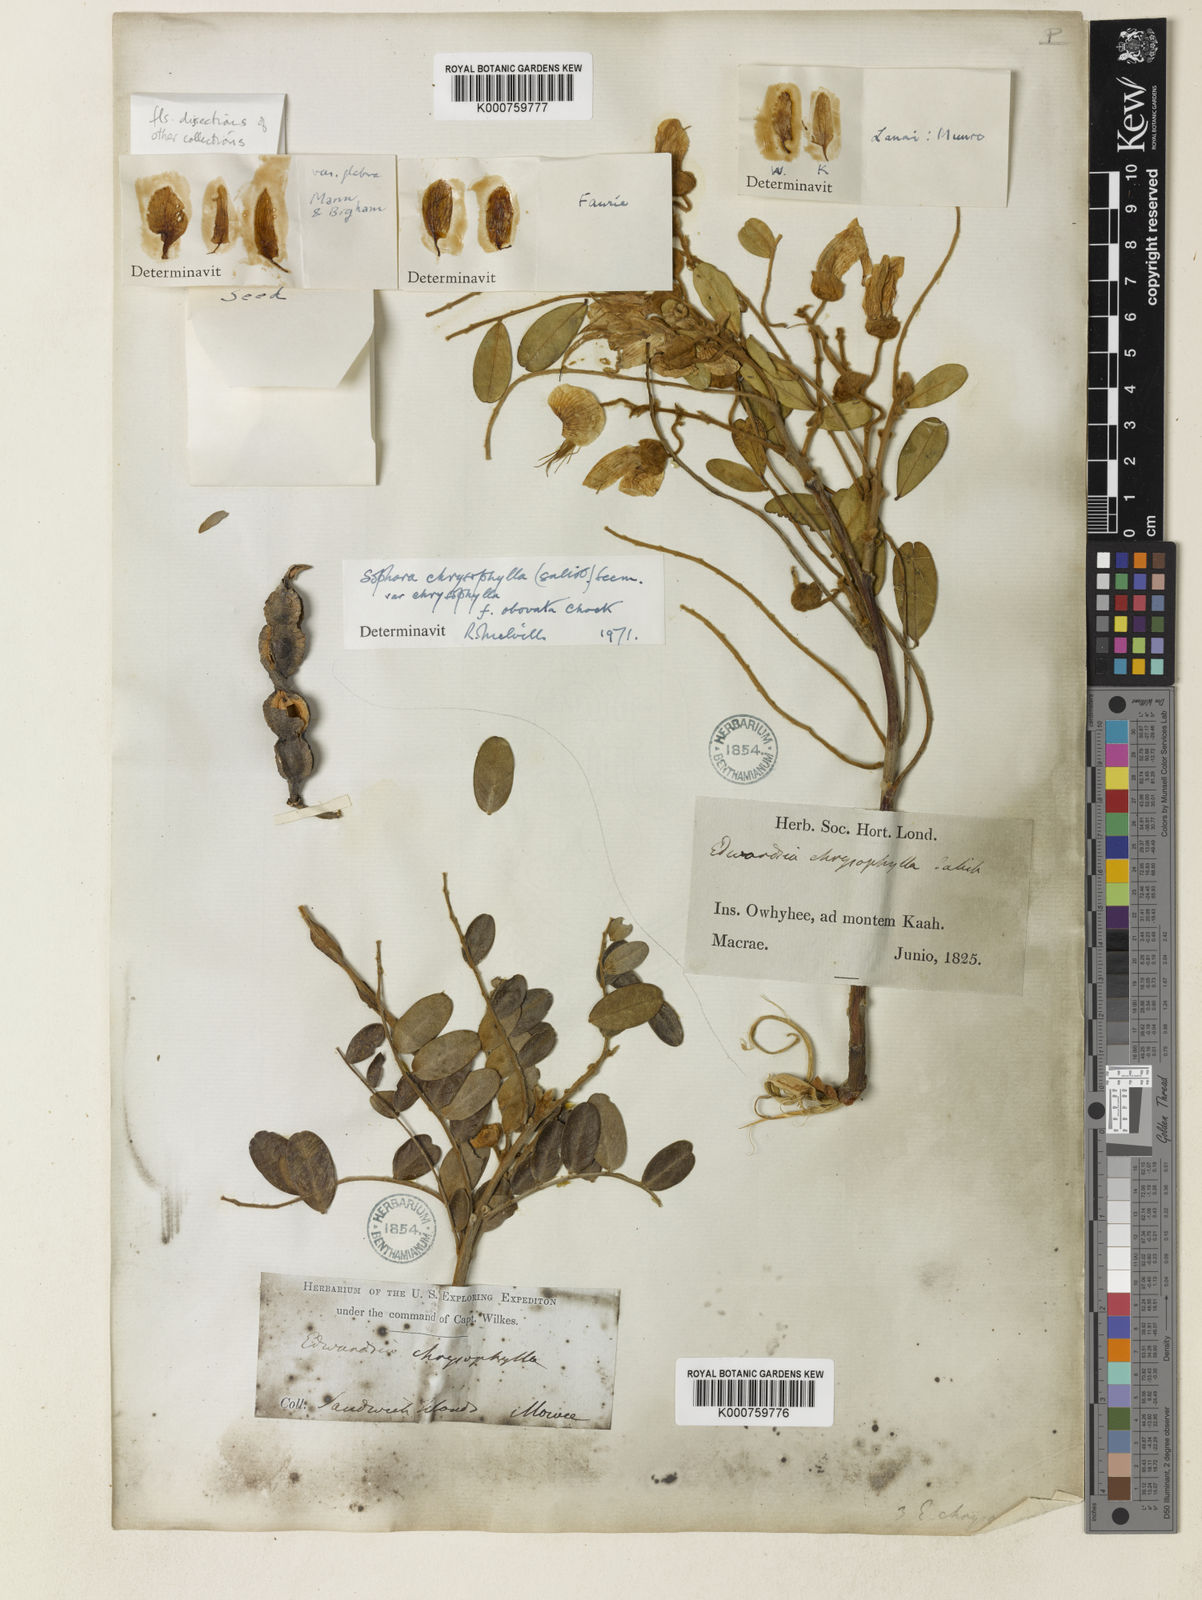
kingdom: Plantae
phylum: Tracheophyta
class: Magnoliopsida
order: Fabales
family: Fabaceae
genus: Sophora
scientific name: Sophora chrysophylla
